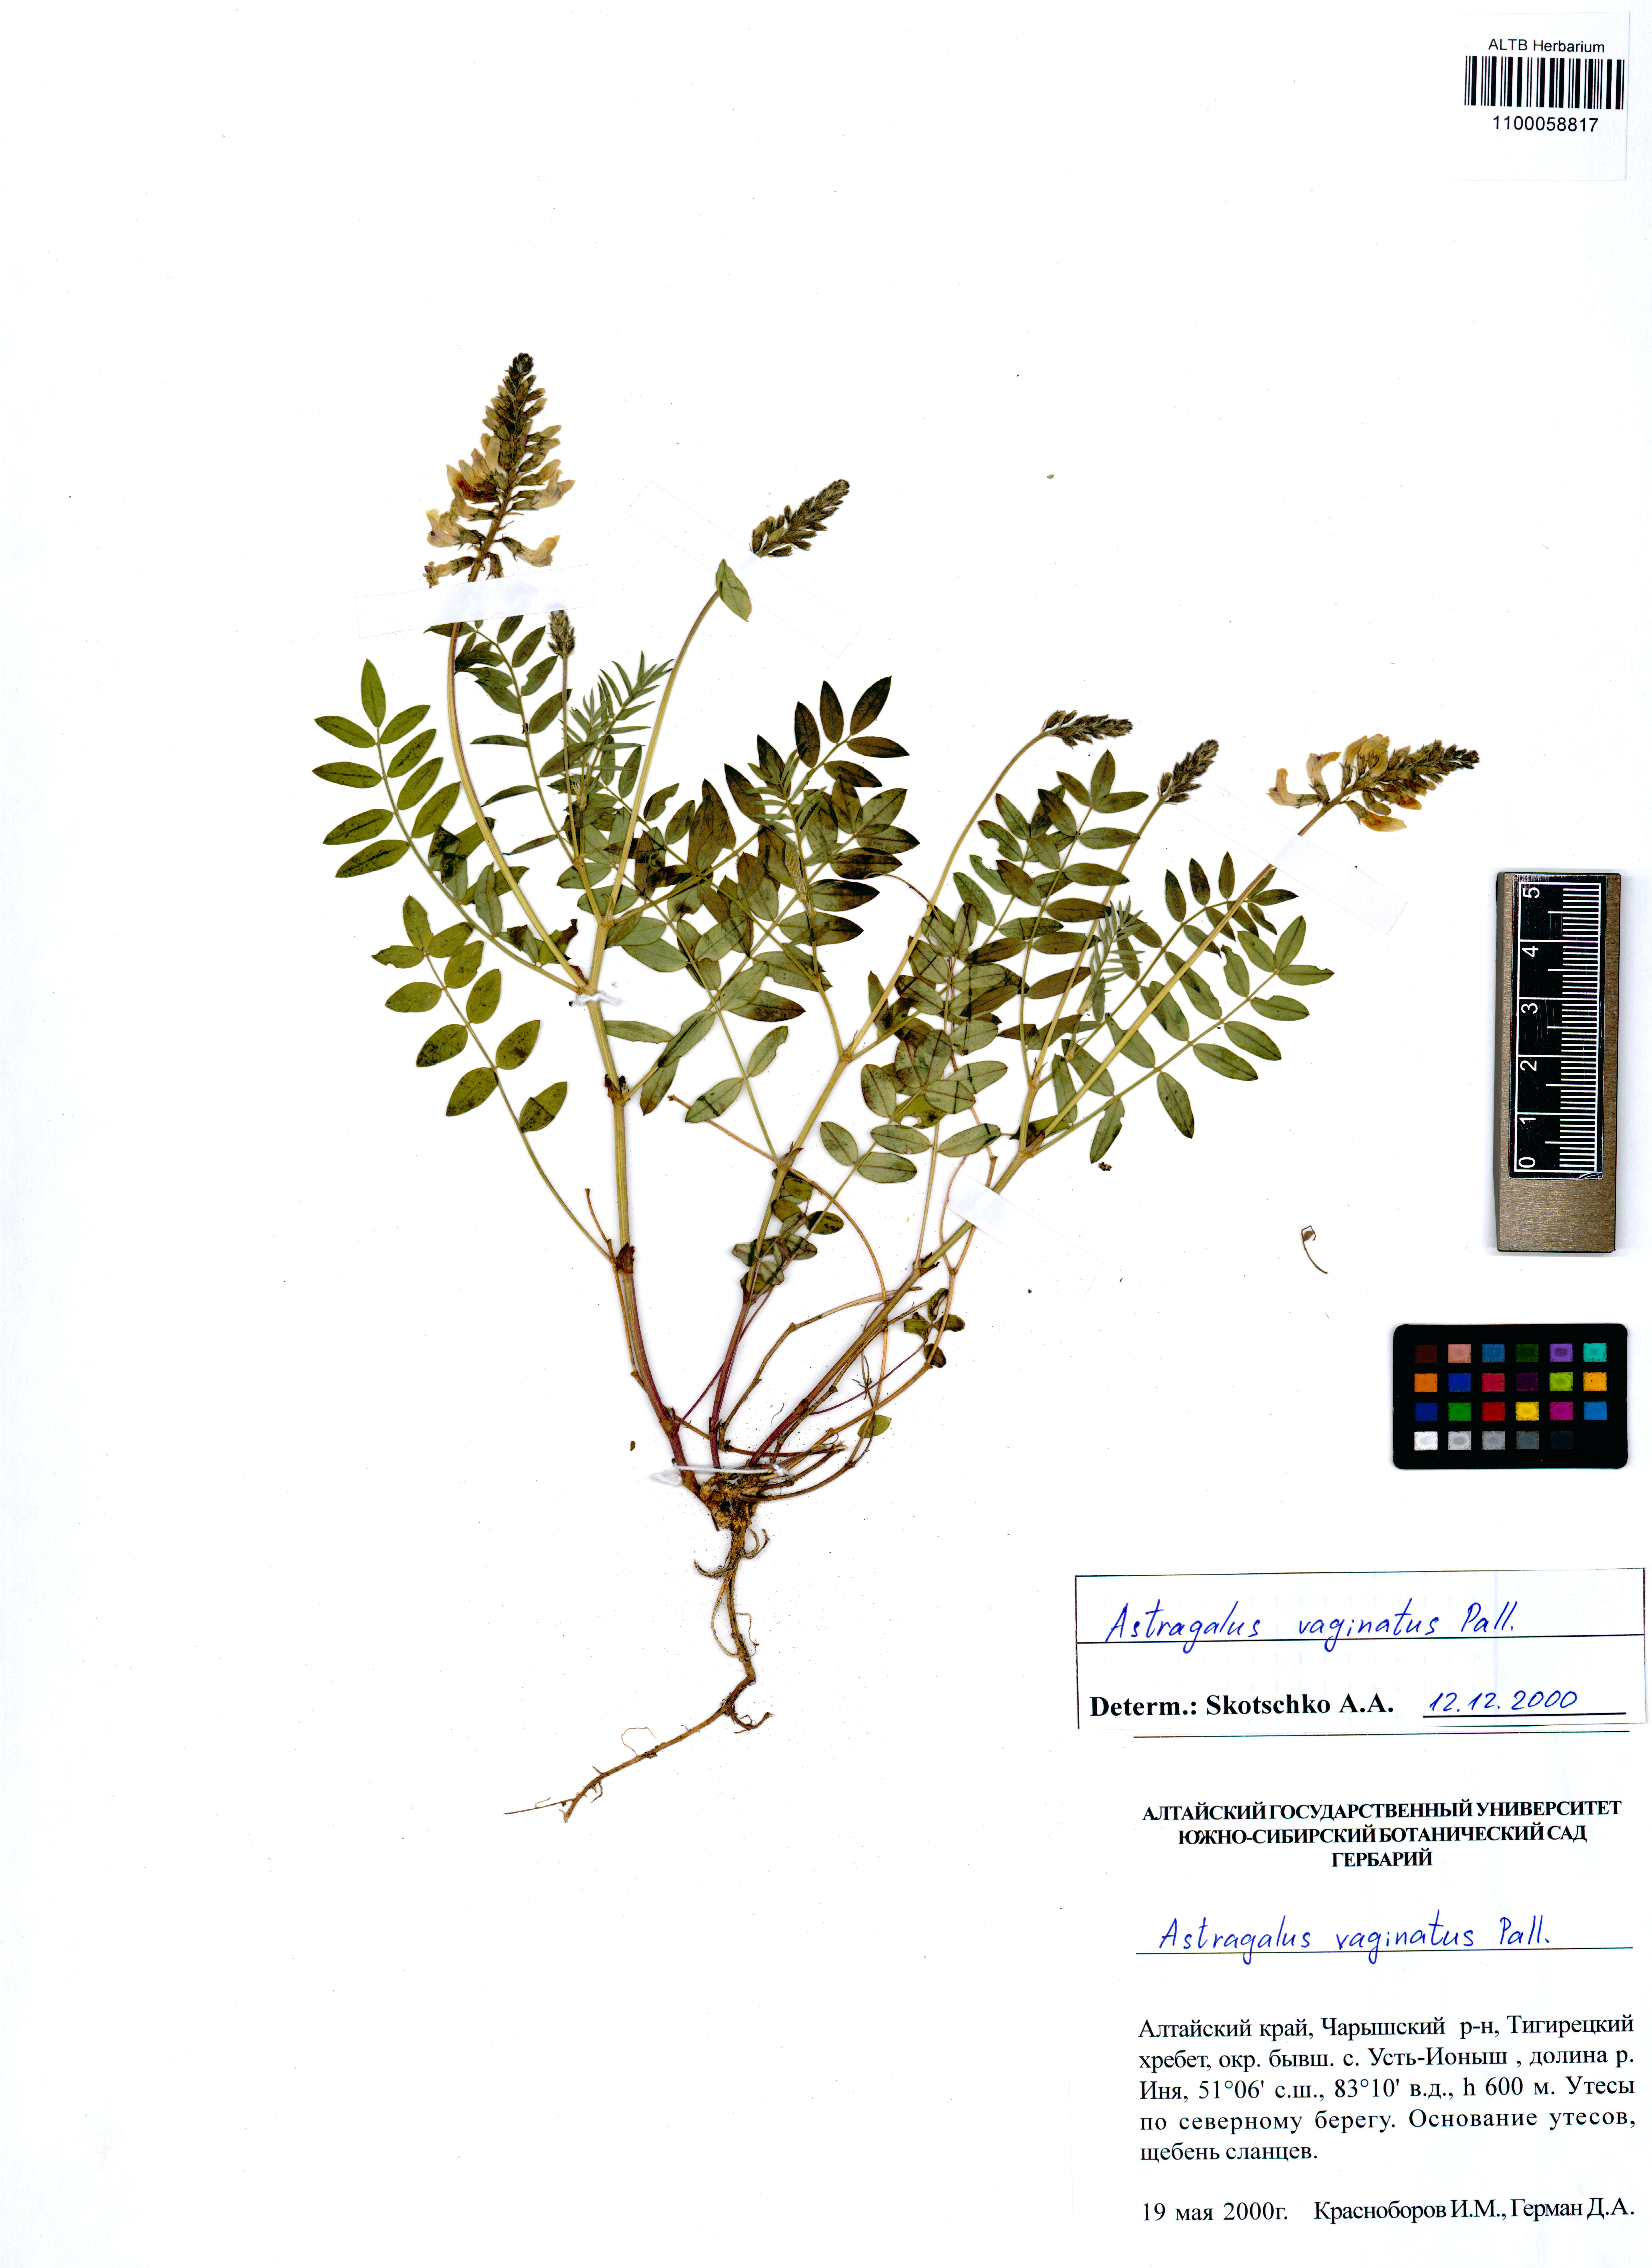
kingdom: Plantae
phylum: Tracheophyta
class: Magnoliopsida
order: Fabales
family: Fabaceae
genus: Astragalus
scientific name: Astragalus vaginatus
